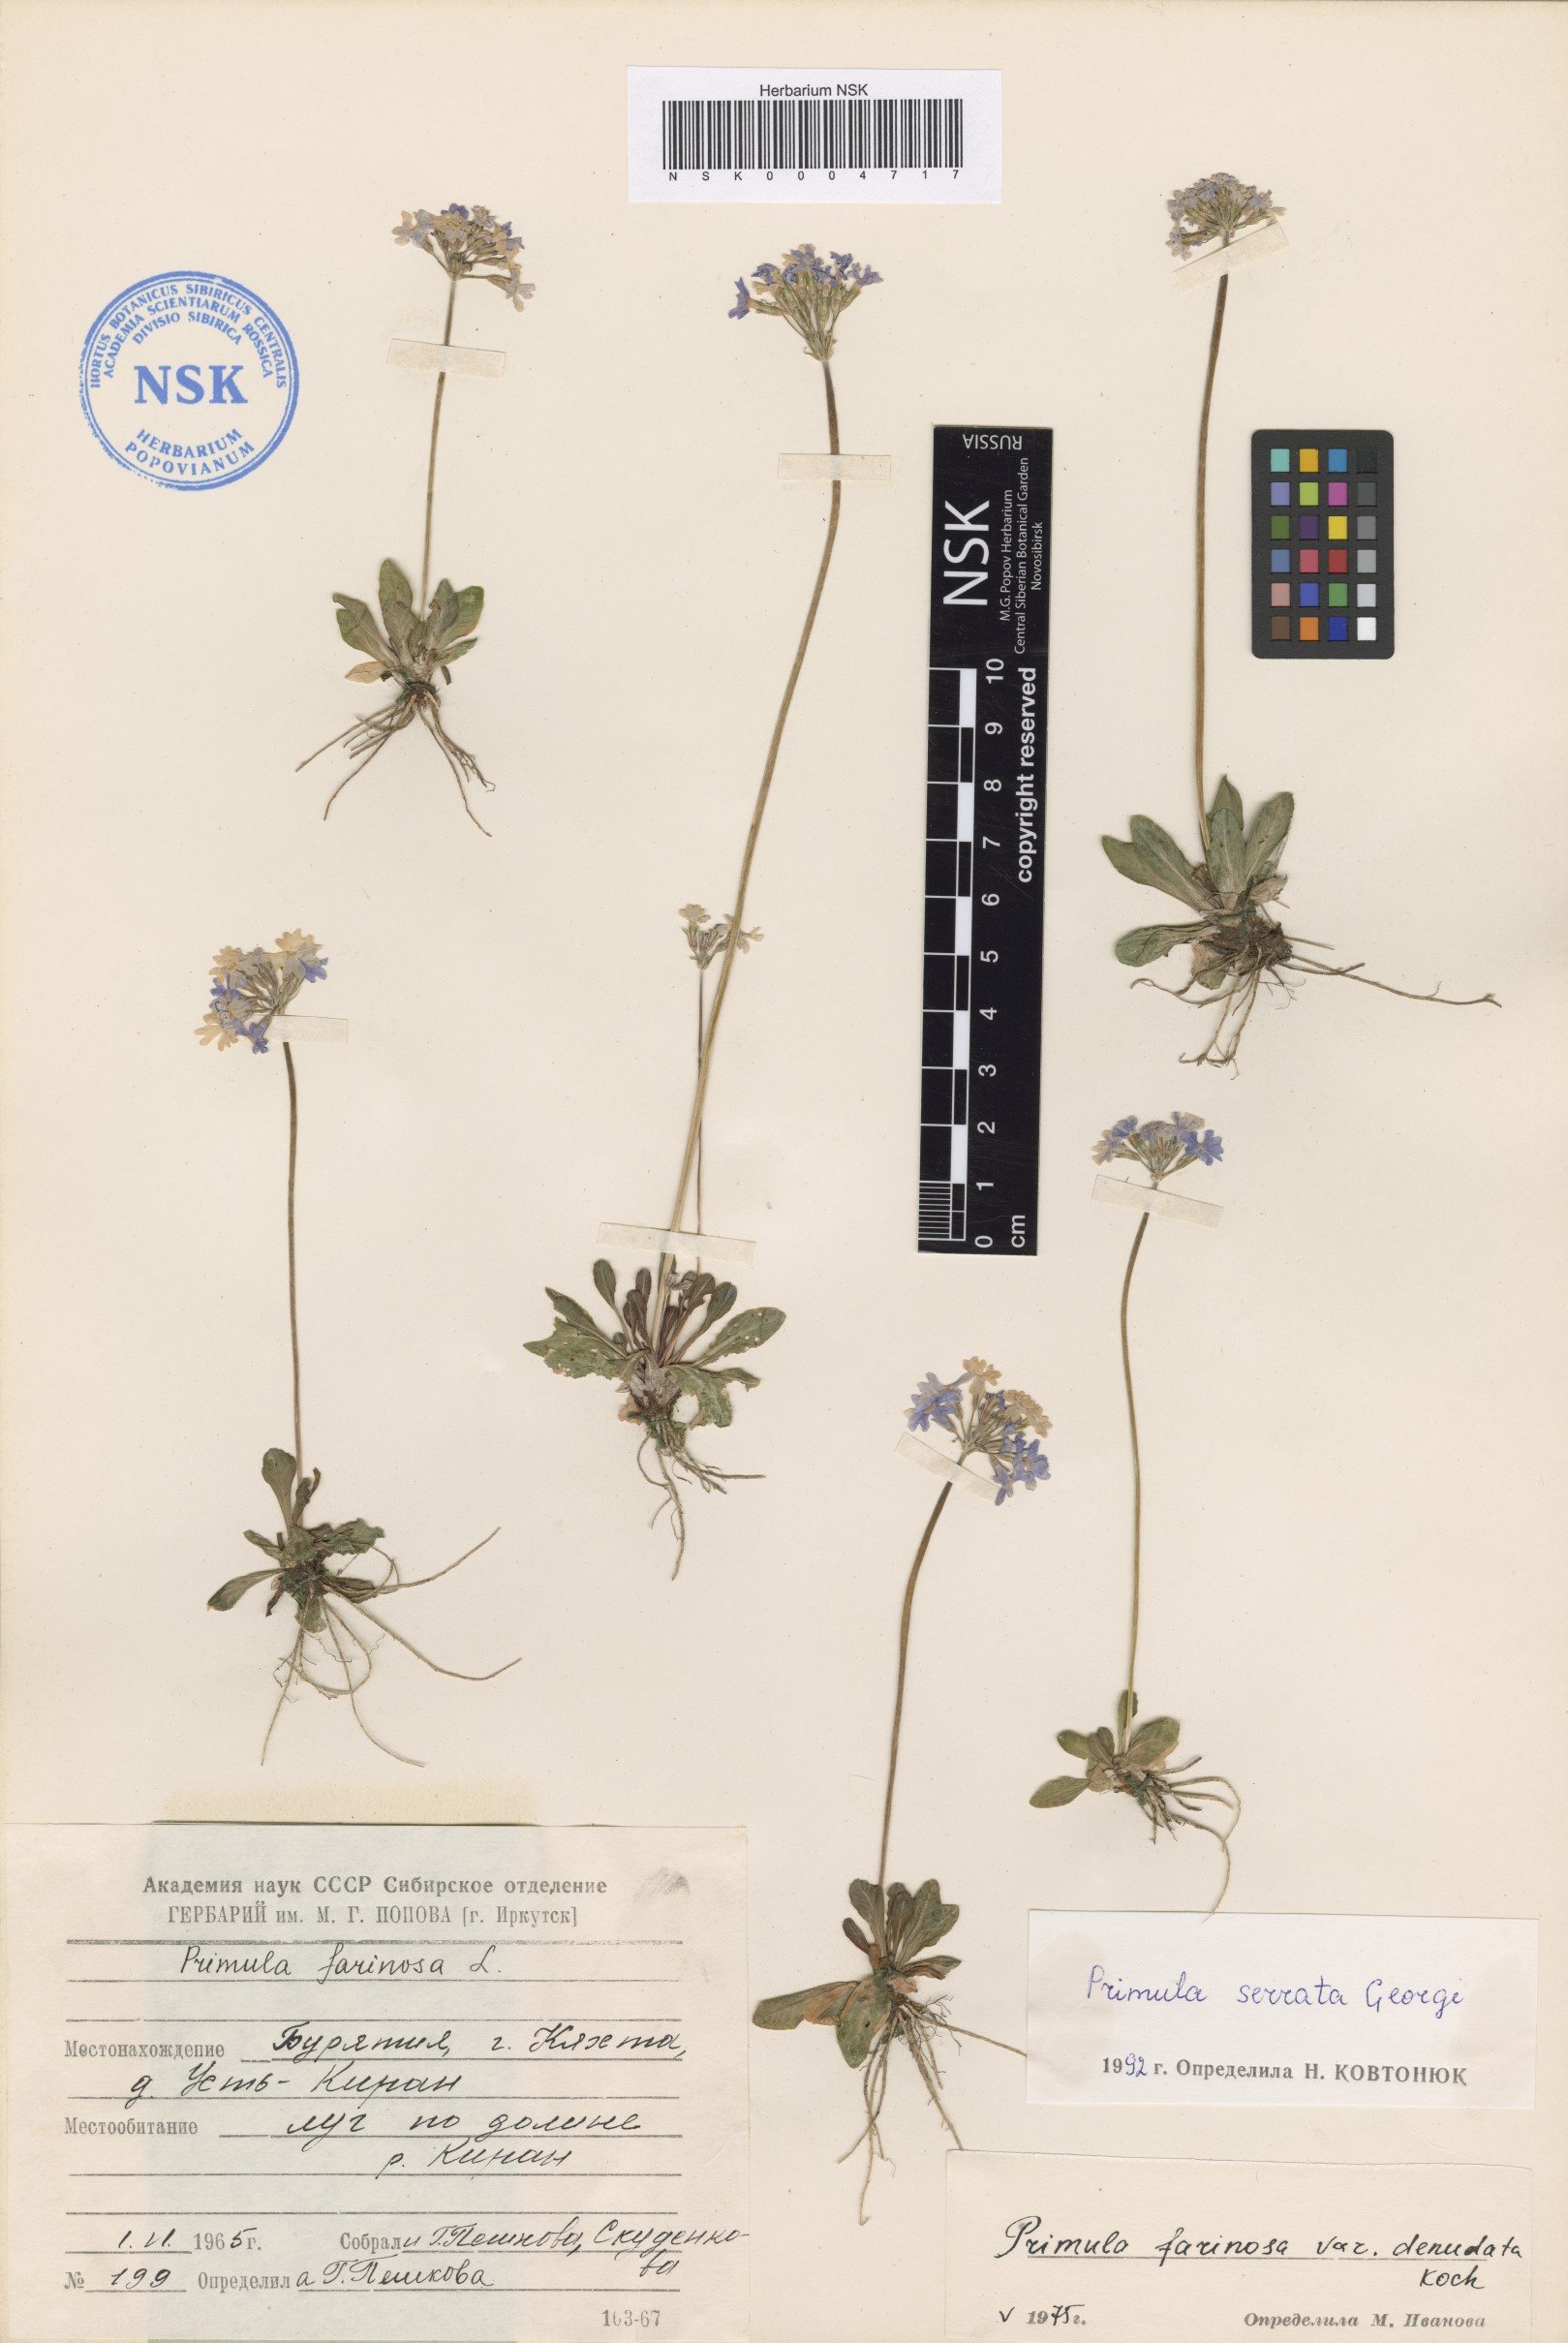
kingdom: Plantae
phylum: Tracheophyta
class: Magnoliopsida
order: Ericales
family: Primulaceae
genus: Primula
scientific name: Primula serrata
